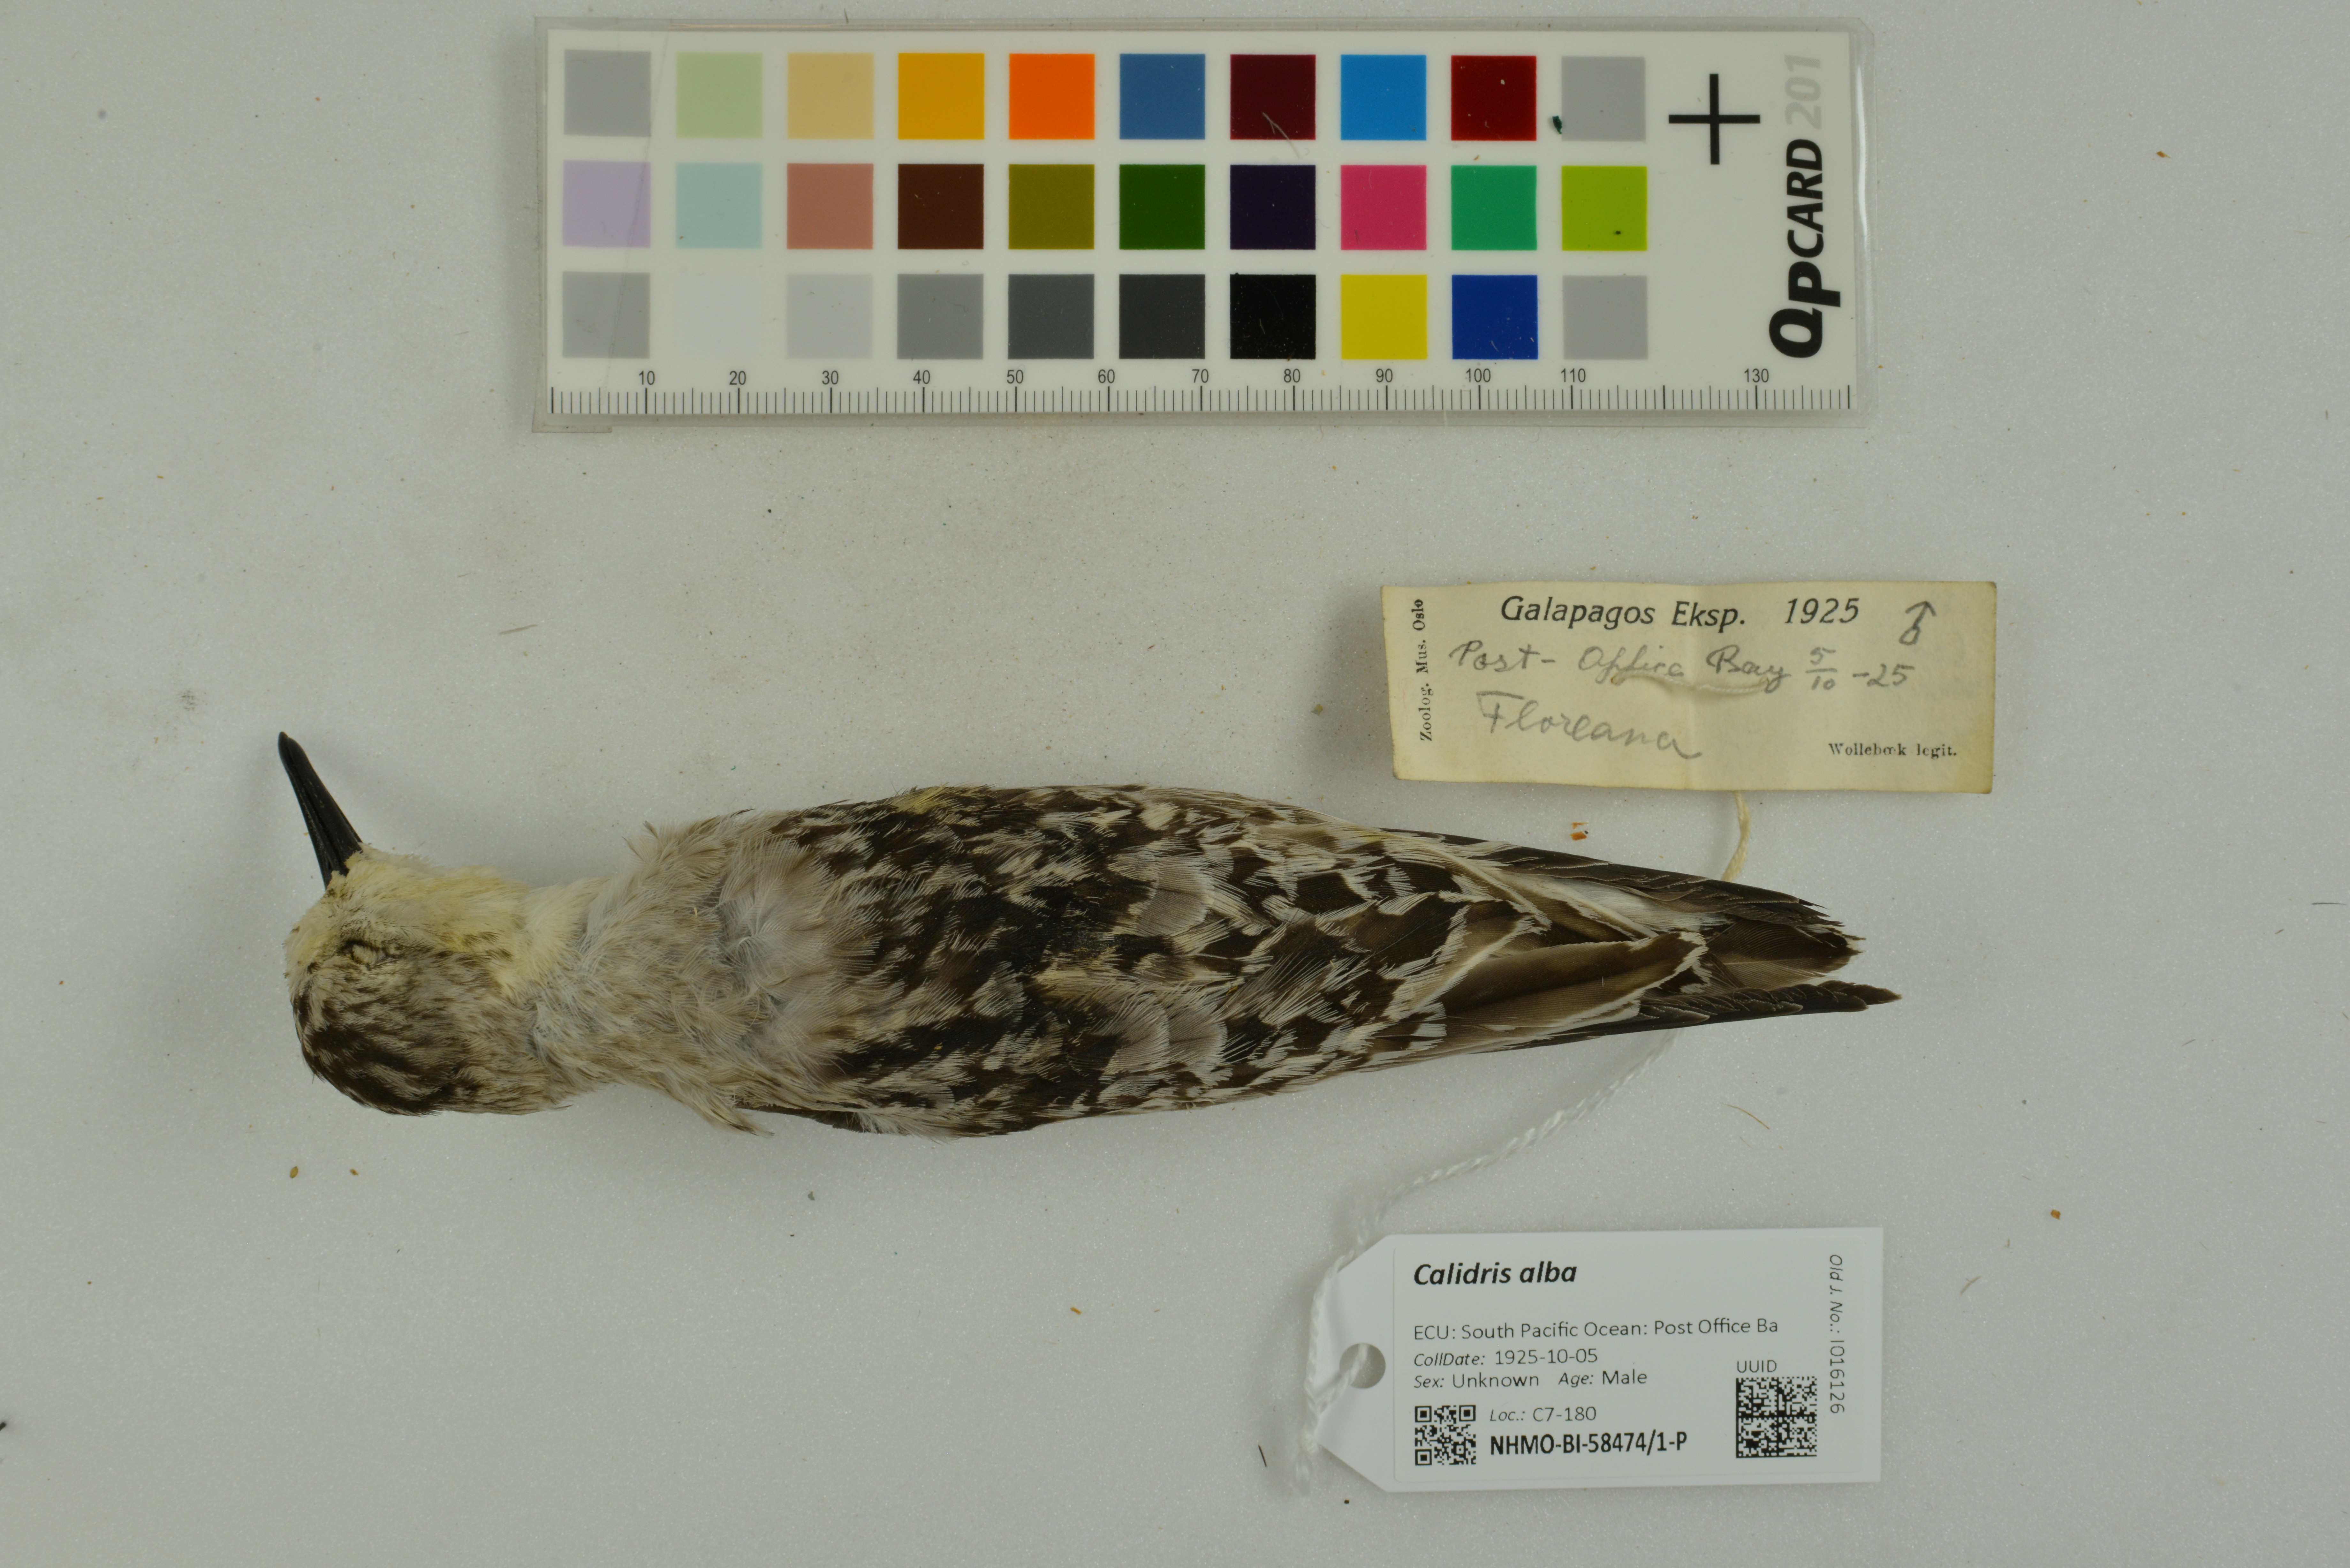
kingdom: Animalia
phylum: Chordata
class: Aves
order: Charadriiformes
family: Scolopacidae
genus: Calidris
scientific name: Calidris alba
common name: Sanderling
